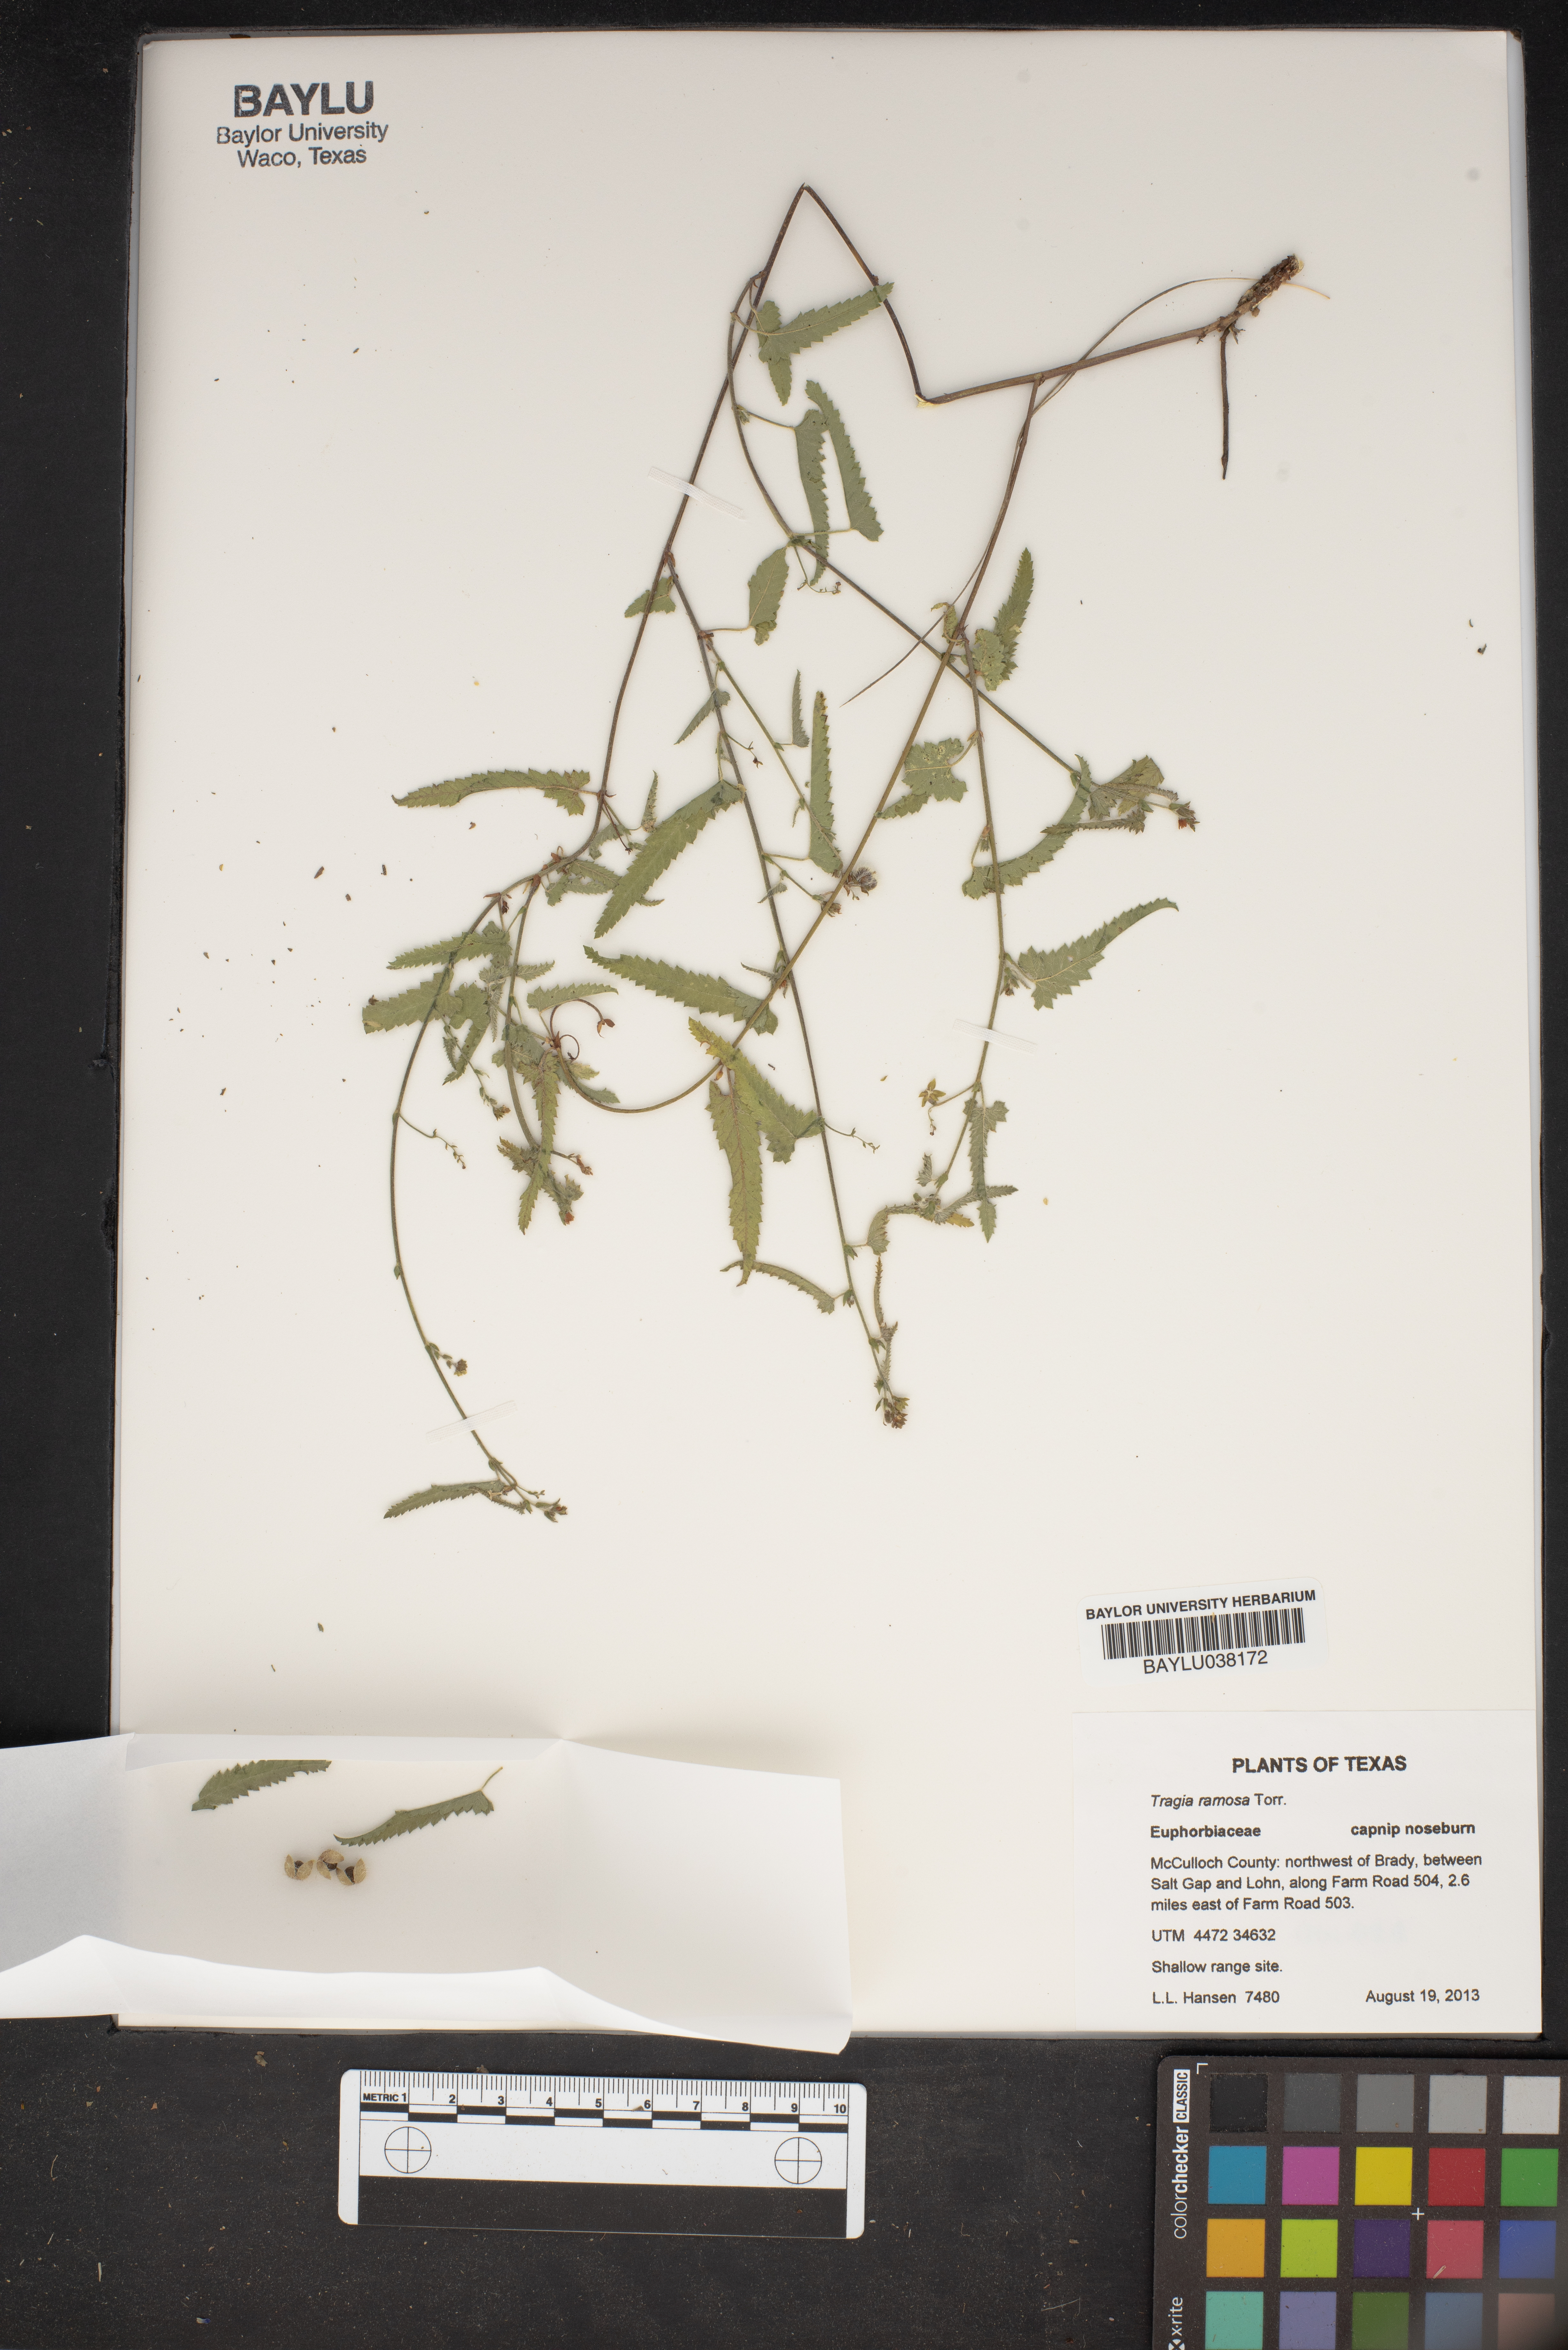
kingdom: Plantae
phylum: Tracheophyta
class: Magnoliopsida
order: Malpighiales
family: Euphorbiaceae
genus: Tragia
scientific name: Tragia ramosa
